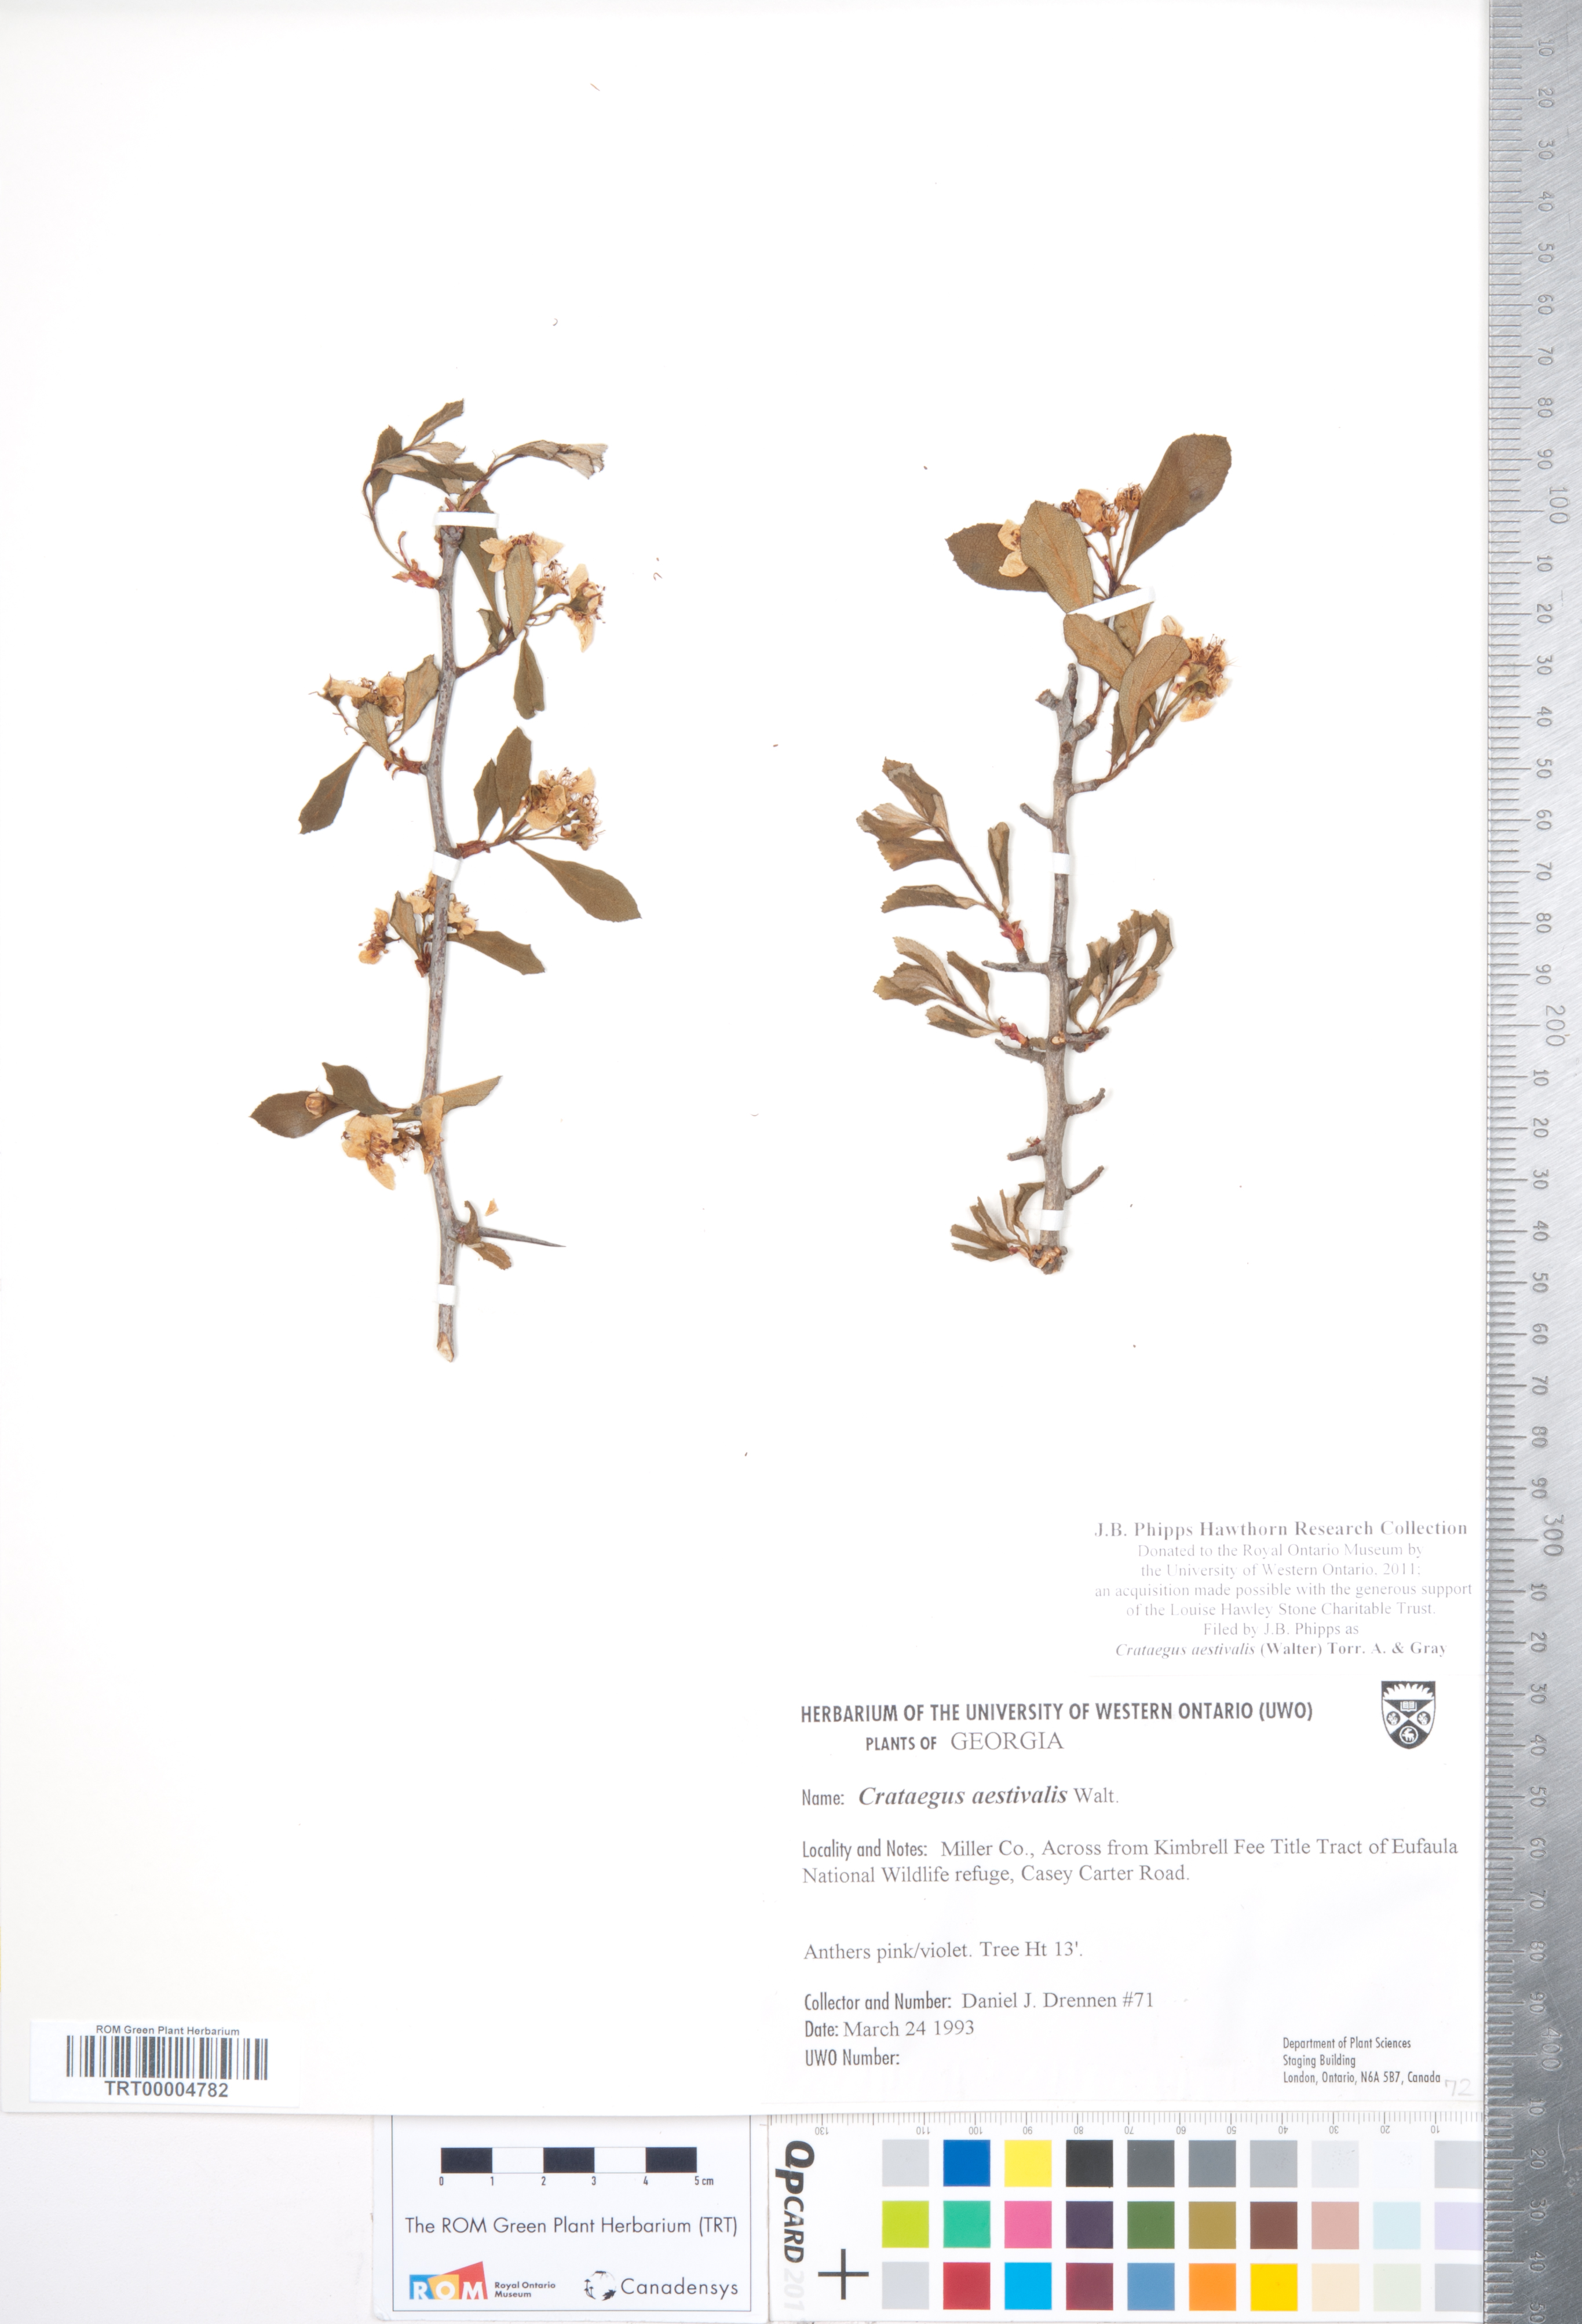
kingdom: Plantae
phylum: Tracheophyta
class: Magnoliopsida
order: Rosales
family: Rosaceae
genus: Crataegus
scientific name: Crataegus aestivalis
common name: Mayhaw
